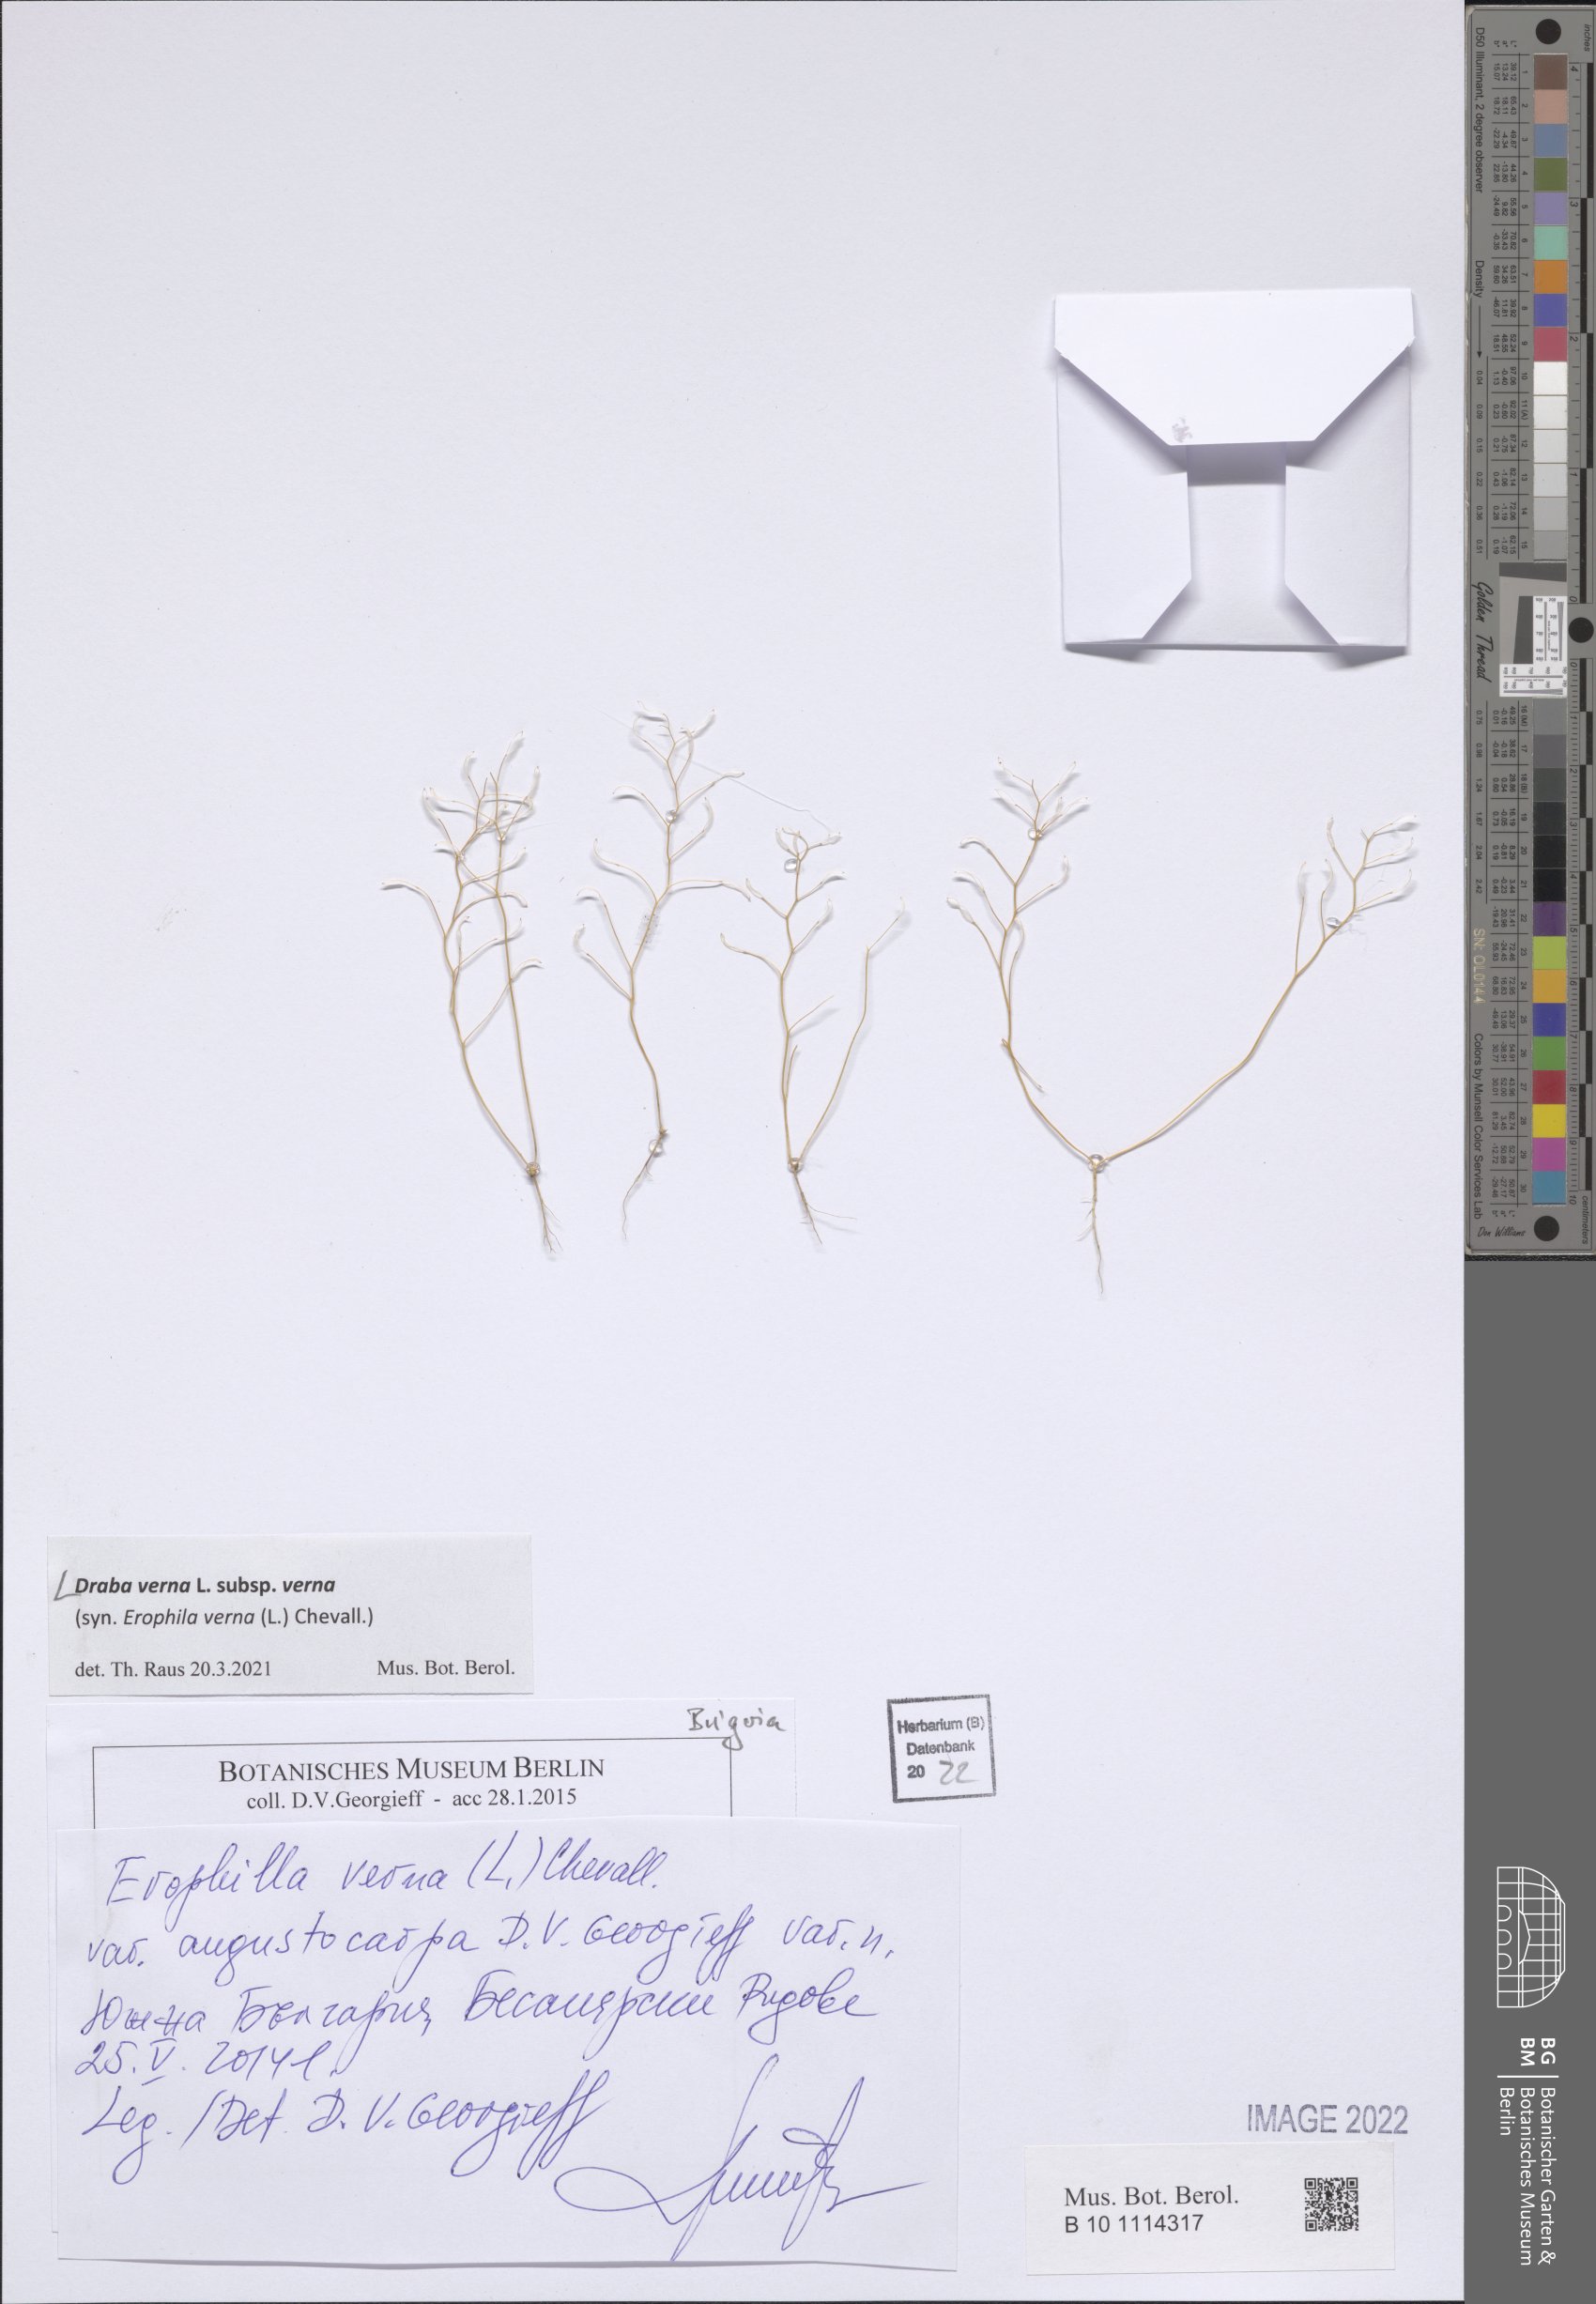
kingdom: Plantae
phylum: Tracheophyta
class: Magnoliopsida
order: Brassicales
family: Brassicaceae
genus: Draba
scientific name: Draba verna
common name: Spring draba
